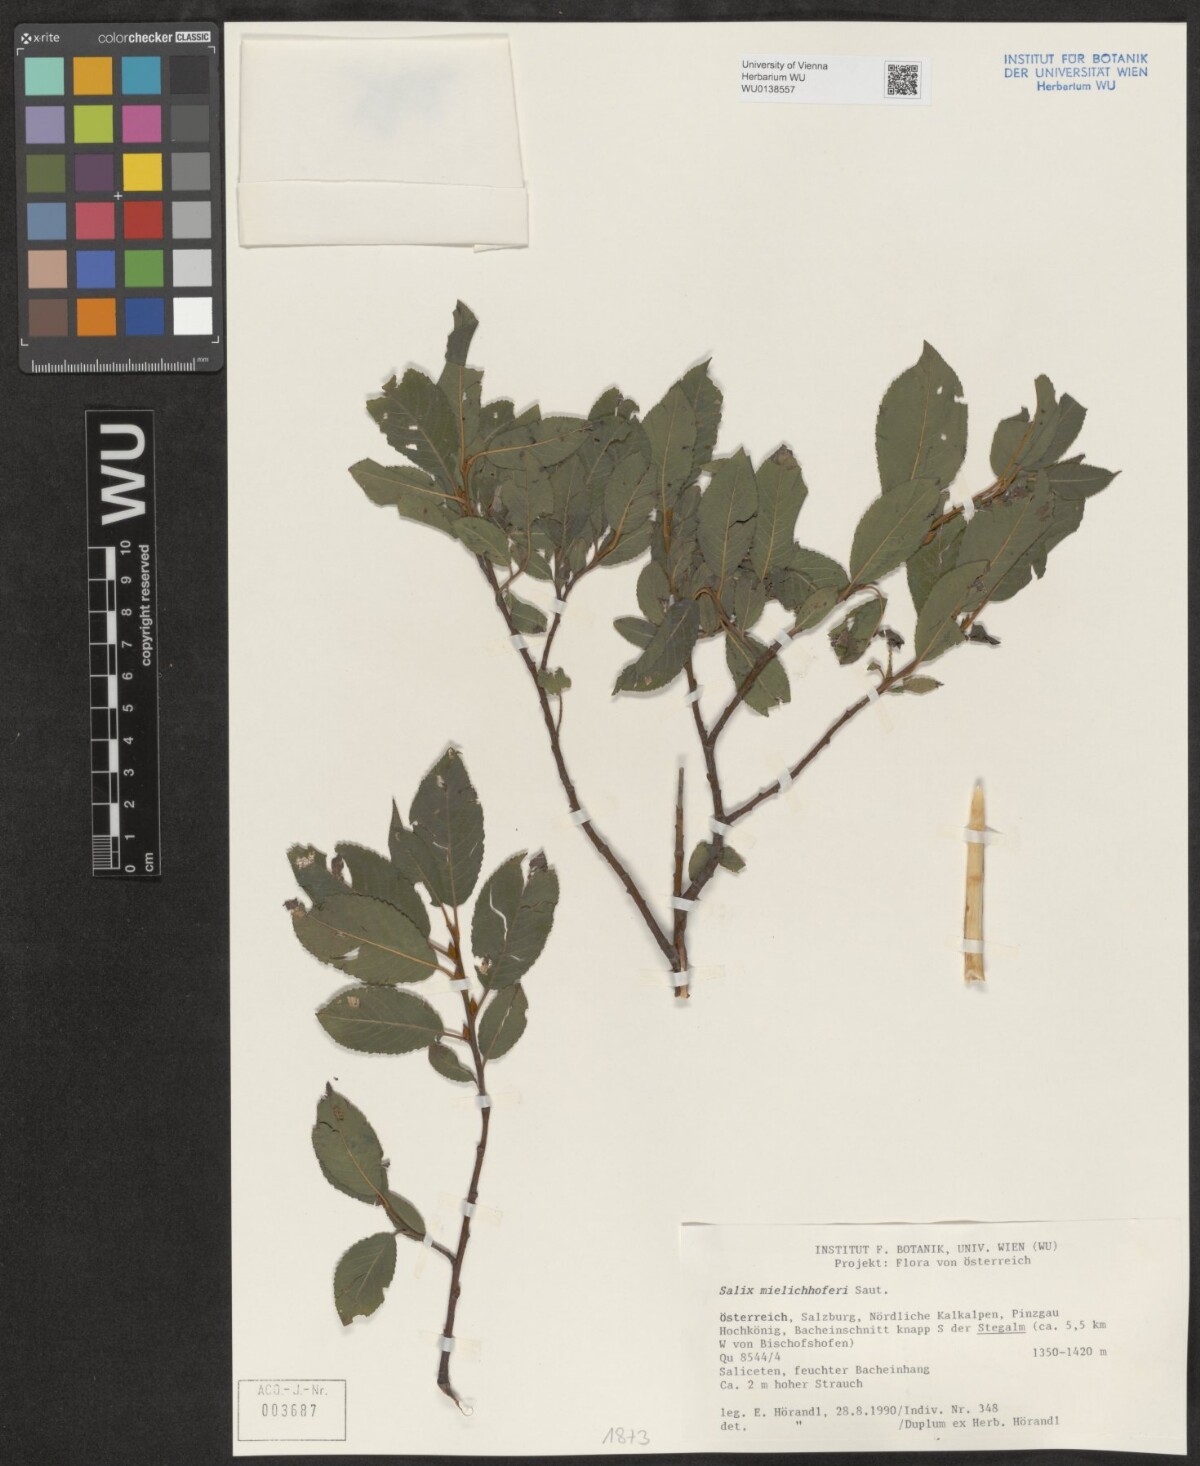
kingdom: Plantae
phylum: Tracheophyta
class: Magnoliopsida
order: Malpighiales
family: Salicaceae
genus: Salix
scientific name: Salix mielichhoferi
